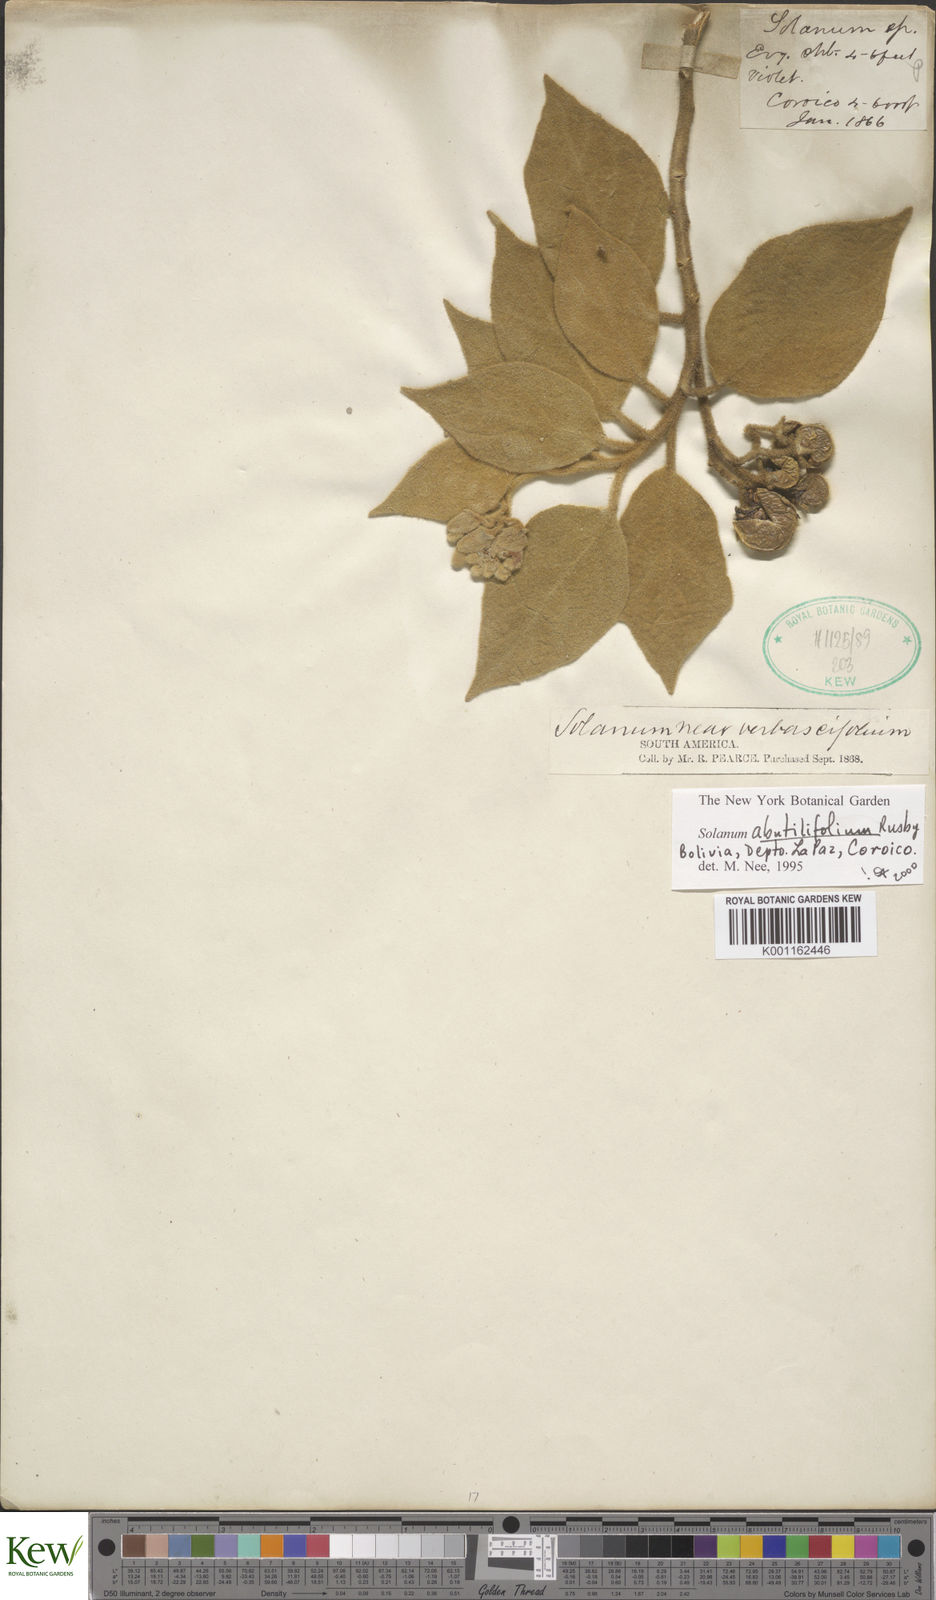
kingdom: Plantae
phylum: Tracheophyta
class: Magnoliopsida
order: Solanales
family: Solanaceae
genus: Solanum
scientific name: Solanum abutilifolium
